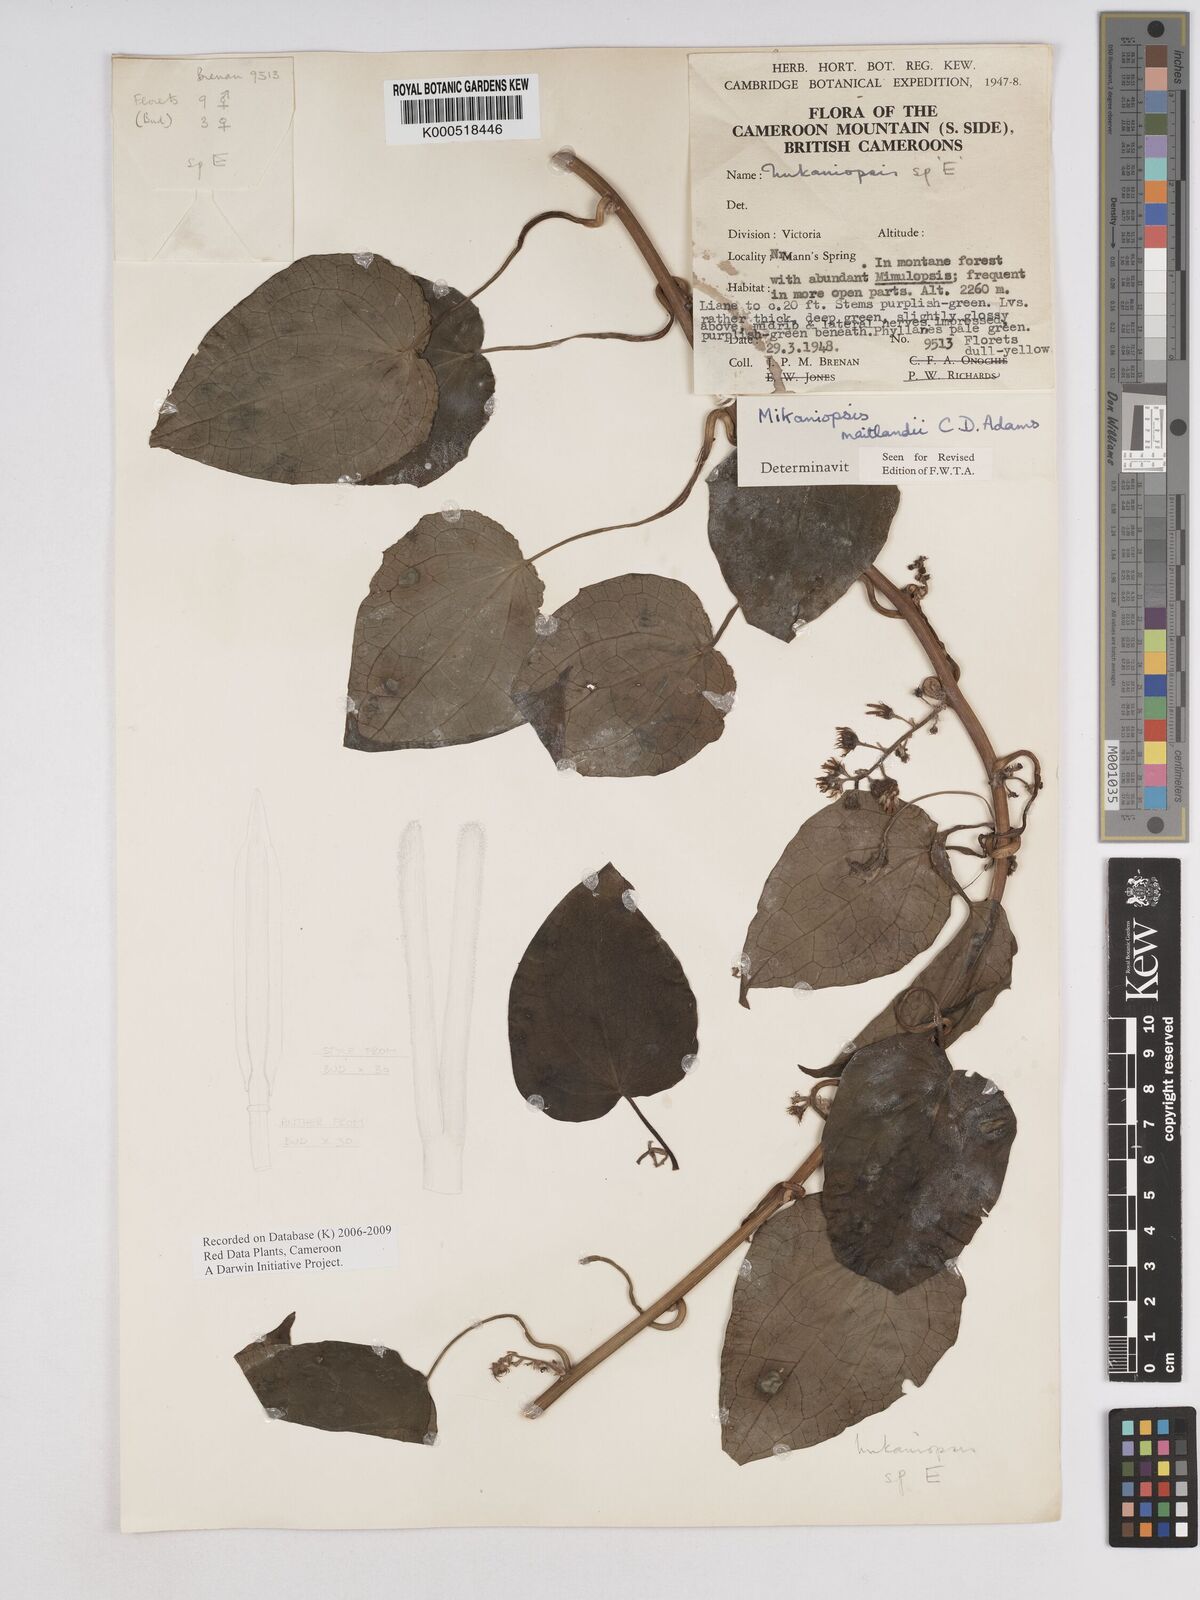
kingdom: Plantae
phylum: Tracheophyta
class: Magnoliopsida
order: Asterales
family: Asteraceae
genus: Mikaniopsis
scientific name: Mikaniopsis maitlandii
